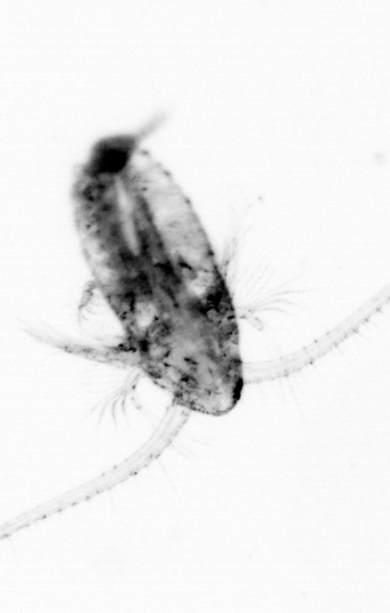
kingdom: Animalia
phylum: Arthropoda
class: Copepoda
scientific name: Copepoda
